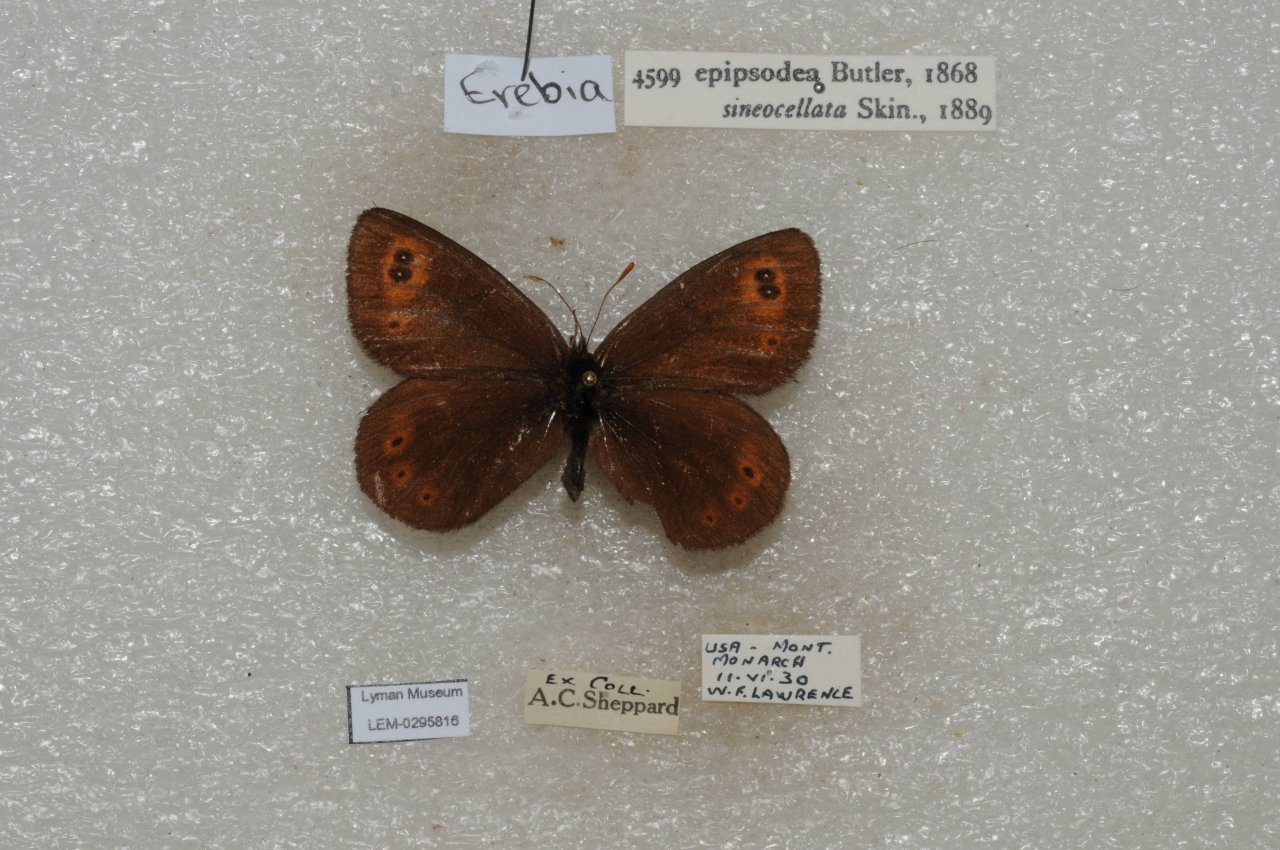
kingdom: Animalia
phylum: Arthropoda
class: Insecta
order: Lepidoptera
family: Nymphalidae
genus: Erebia
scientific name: Erebia epipsodea
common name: Common Alpine
